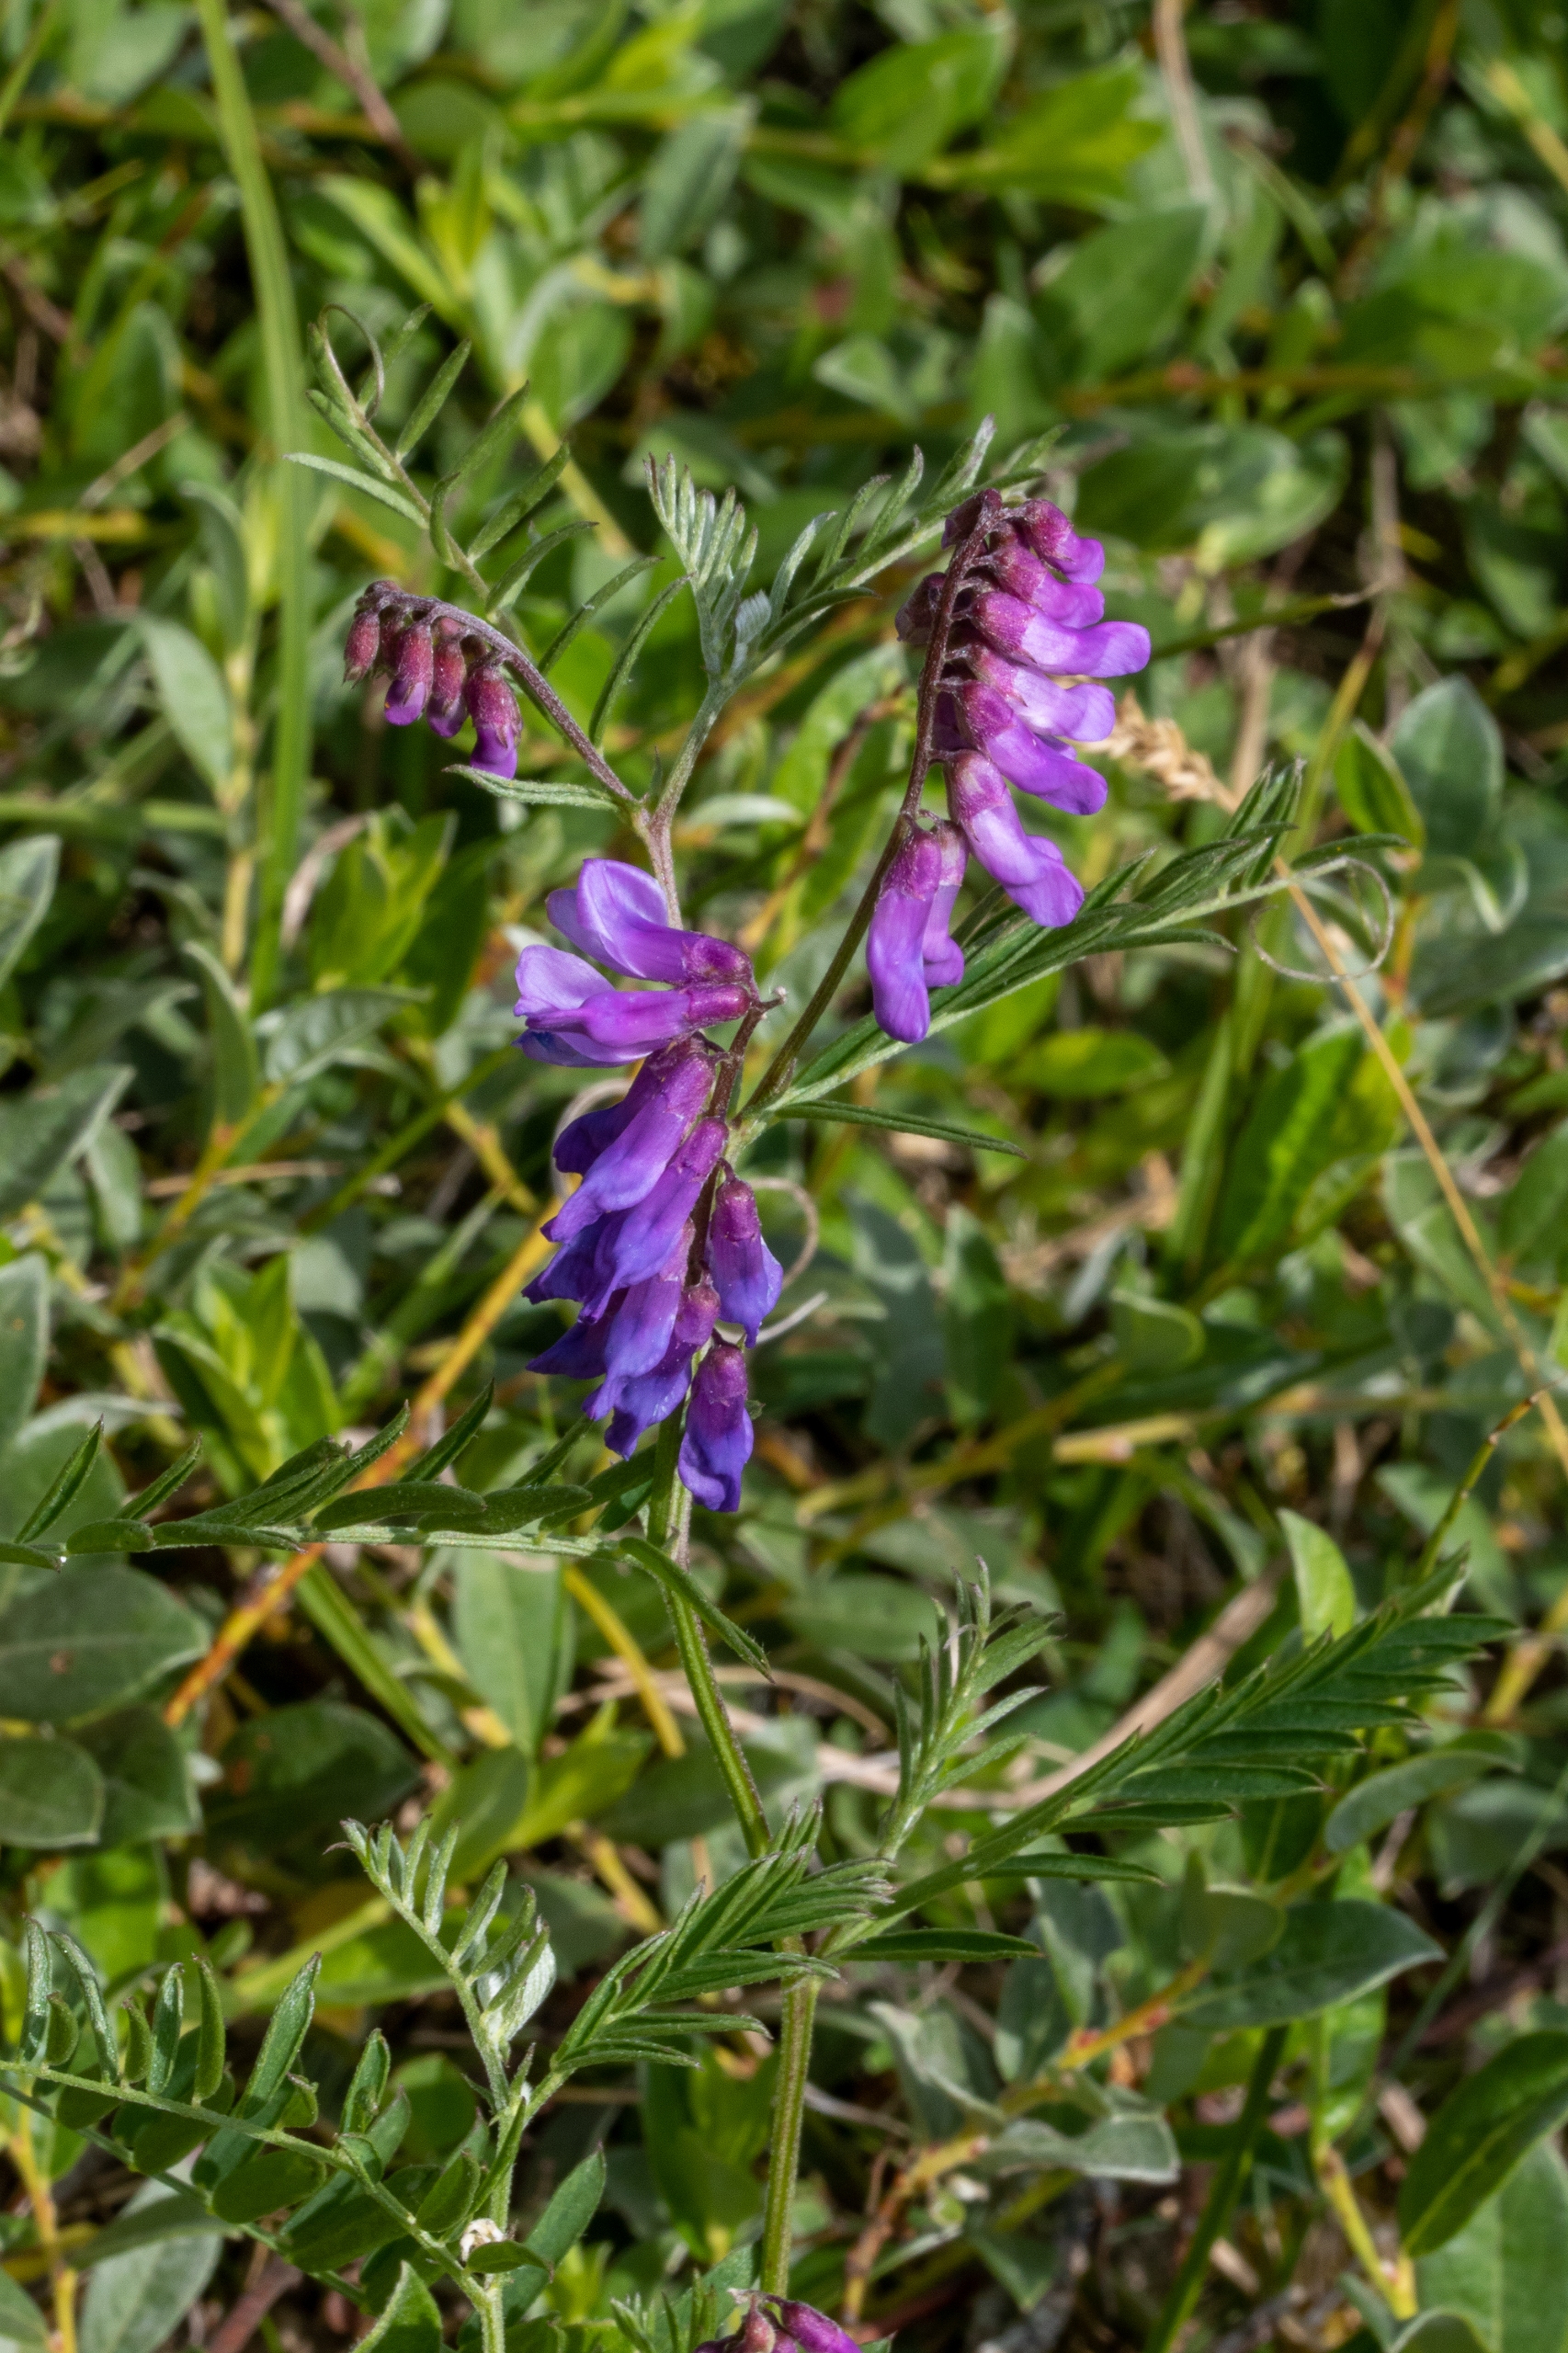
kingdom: Plantae
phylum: Tracheophyta
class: Magnoliopsida
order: Fabales
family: Fabaceae
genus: Vicia
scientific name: Vicia cracca
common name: Muse-vikke
